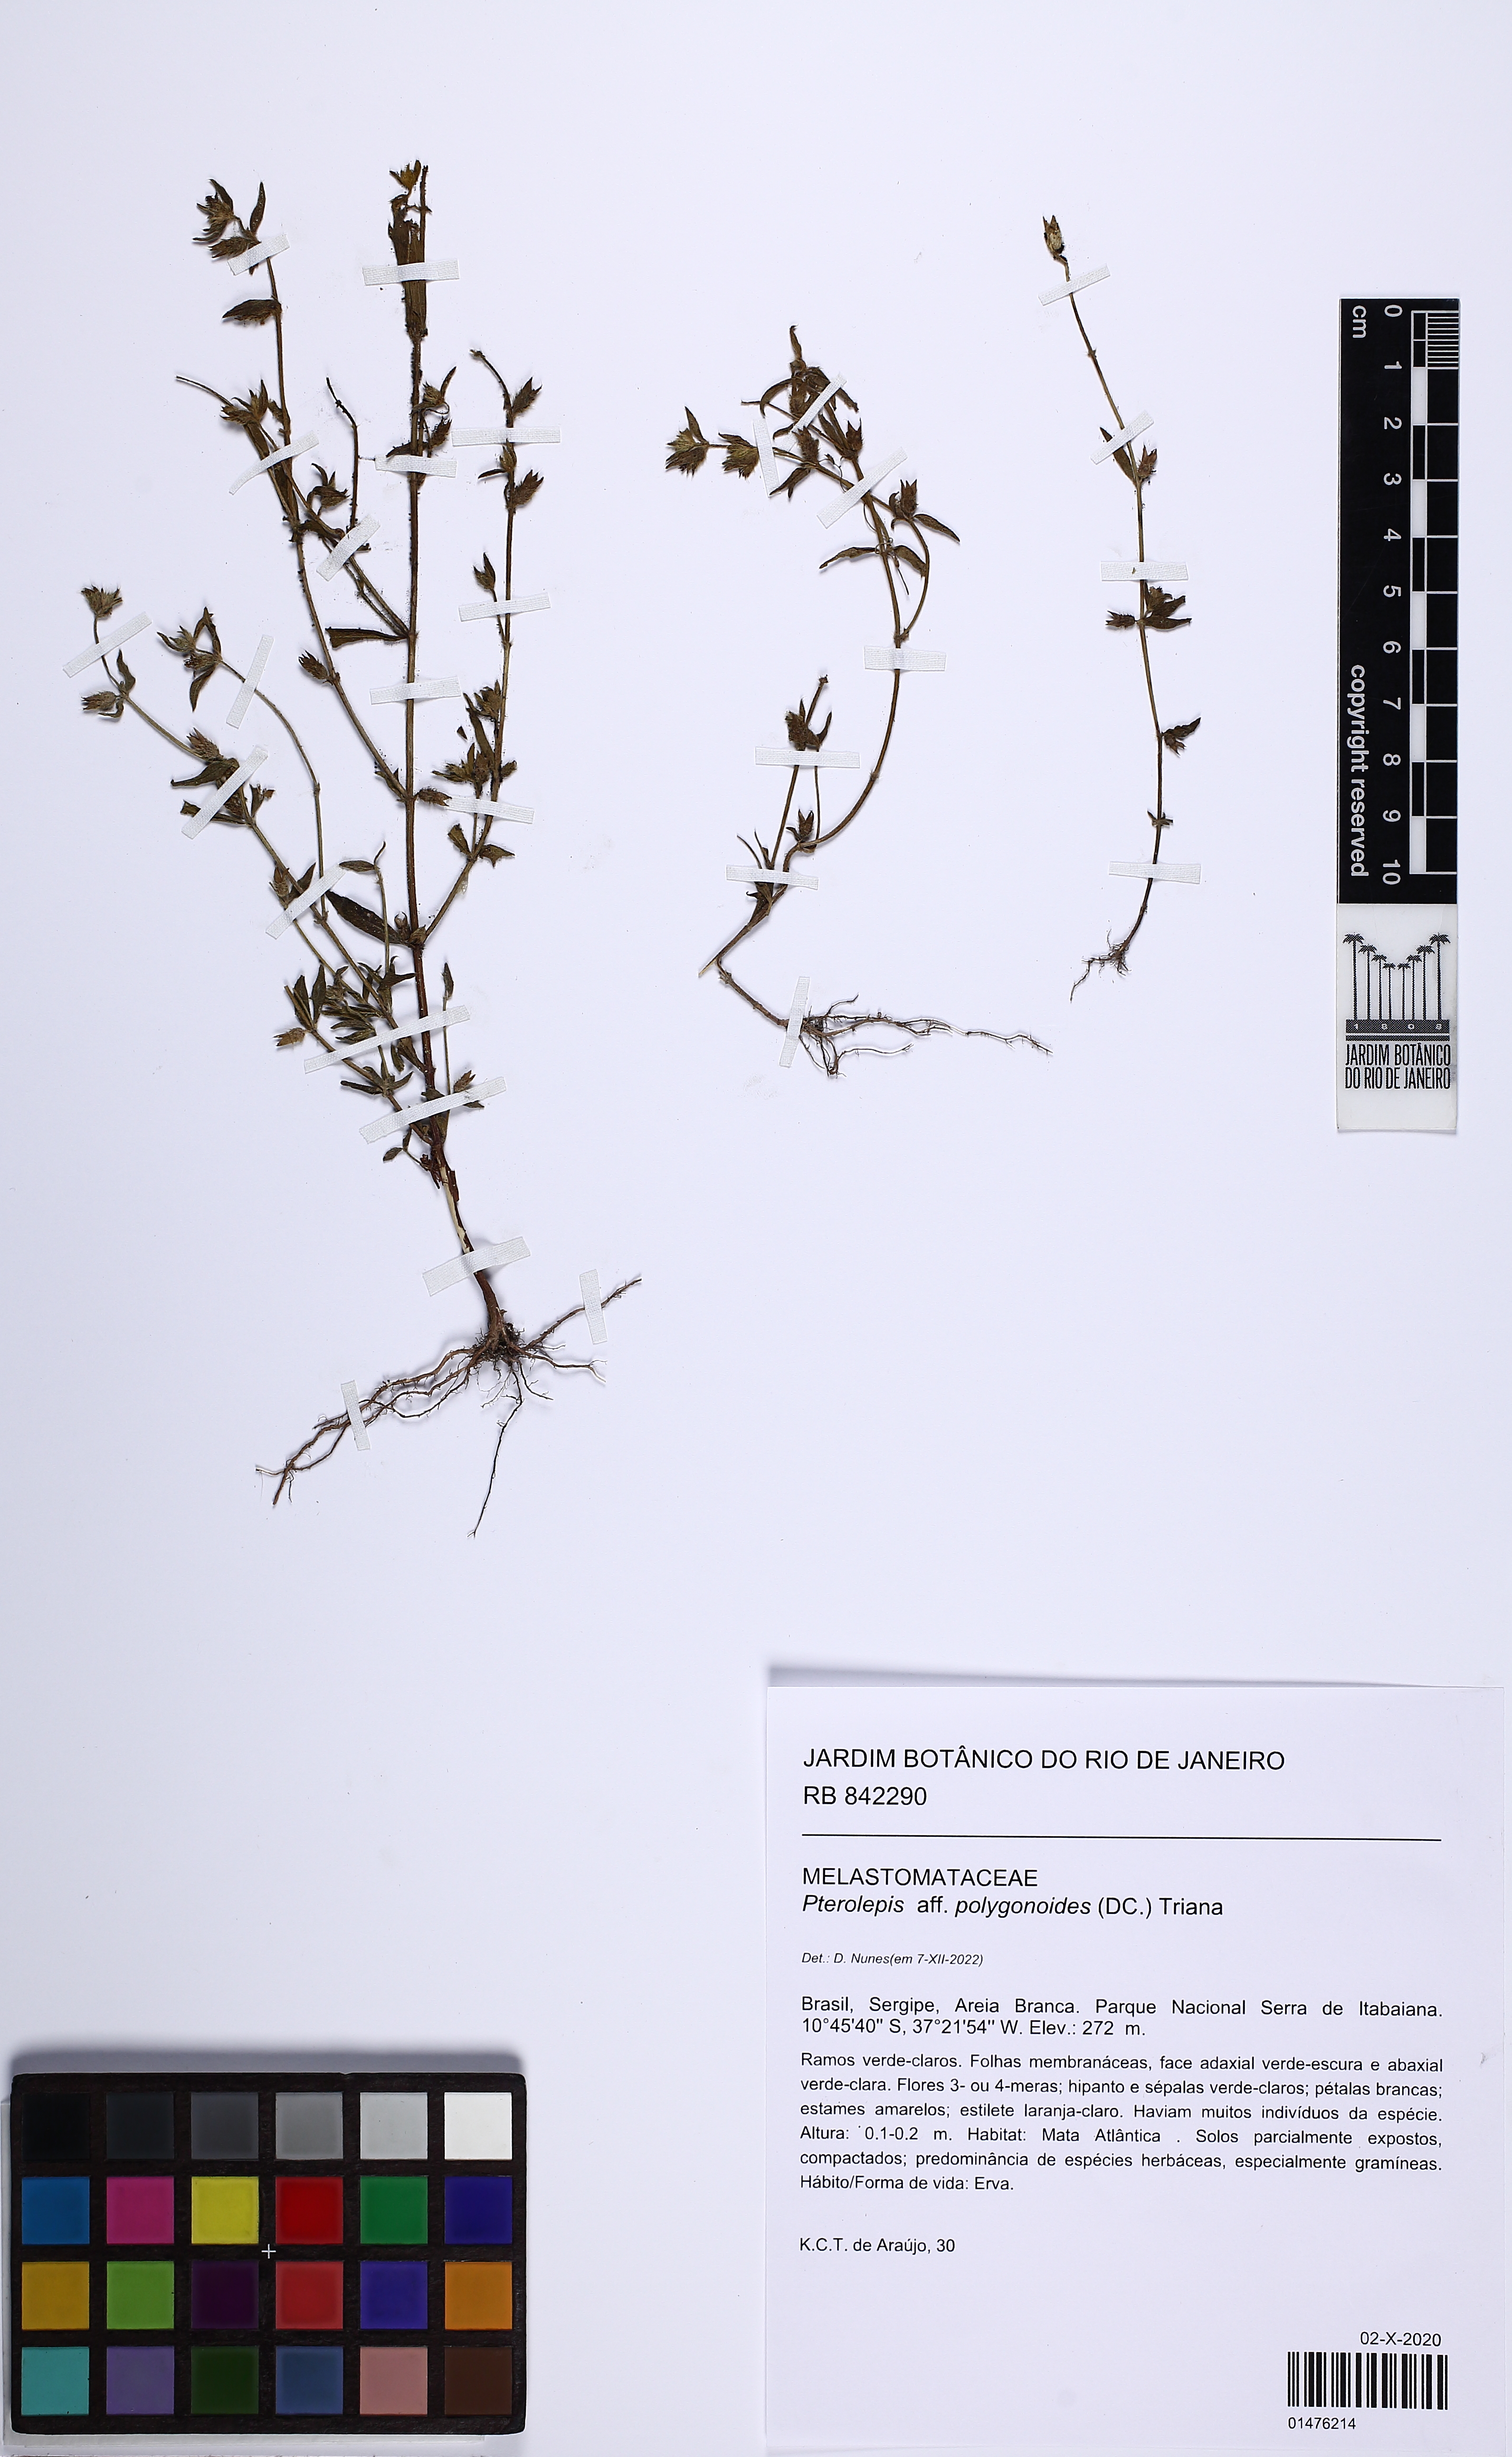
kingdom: Plantae
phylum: Tracheophyta
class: Magnoliopsida
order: Myrtales
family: Melastomataceae
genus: Pterolepis
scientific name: Pterolepis polygonoides
